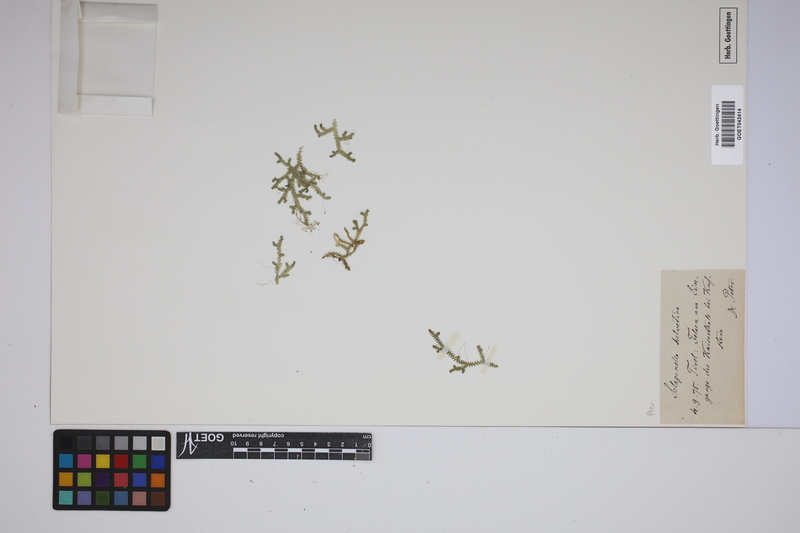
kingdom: Plantae
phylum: Tracheophyta
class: Lycopodiopsida
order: Selaginellales
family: Selaginellaceae
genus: Selaginella
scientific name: Selaginella helvetica
